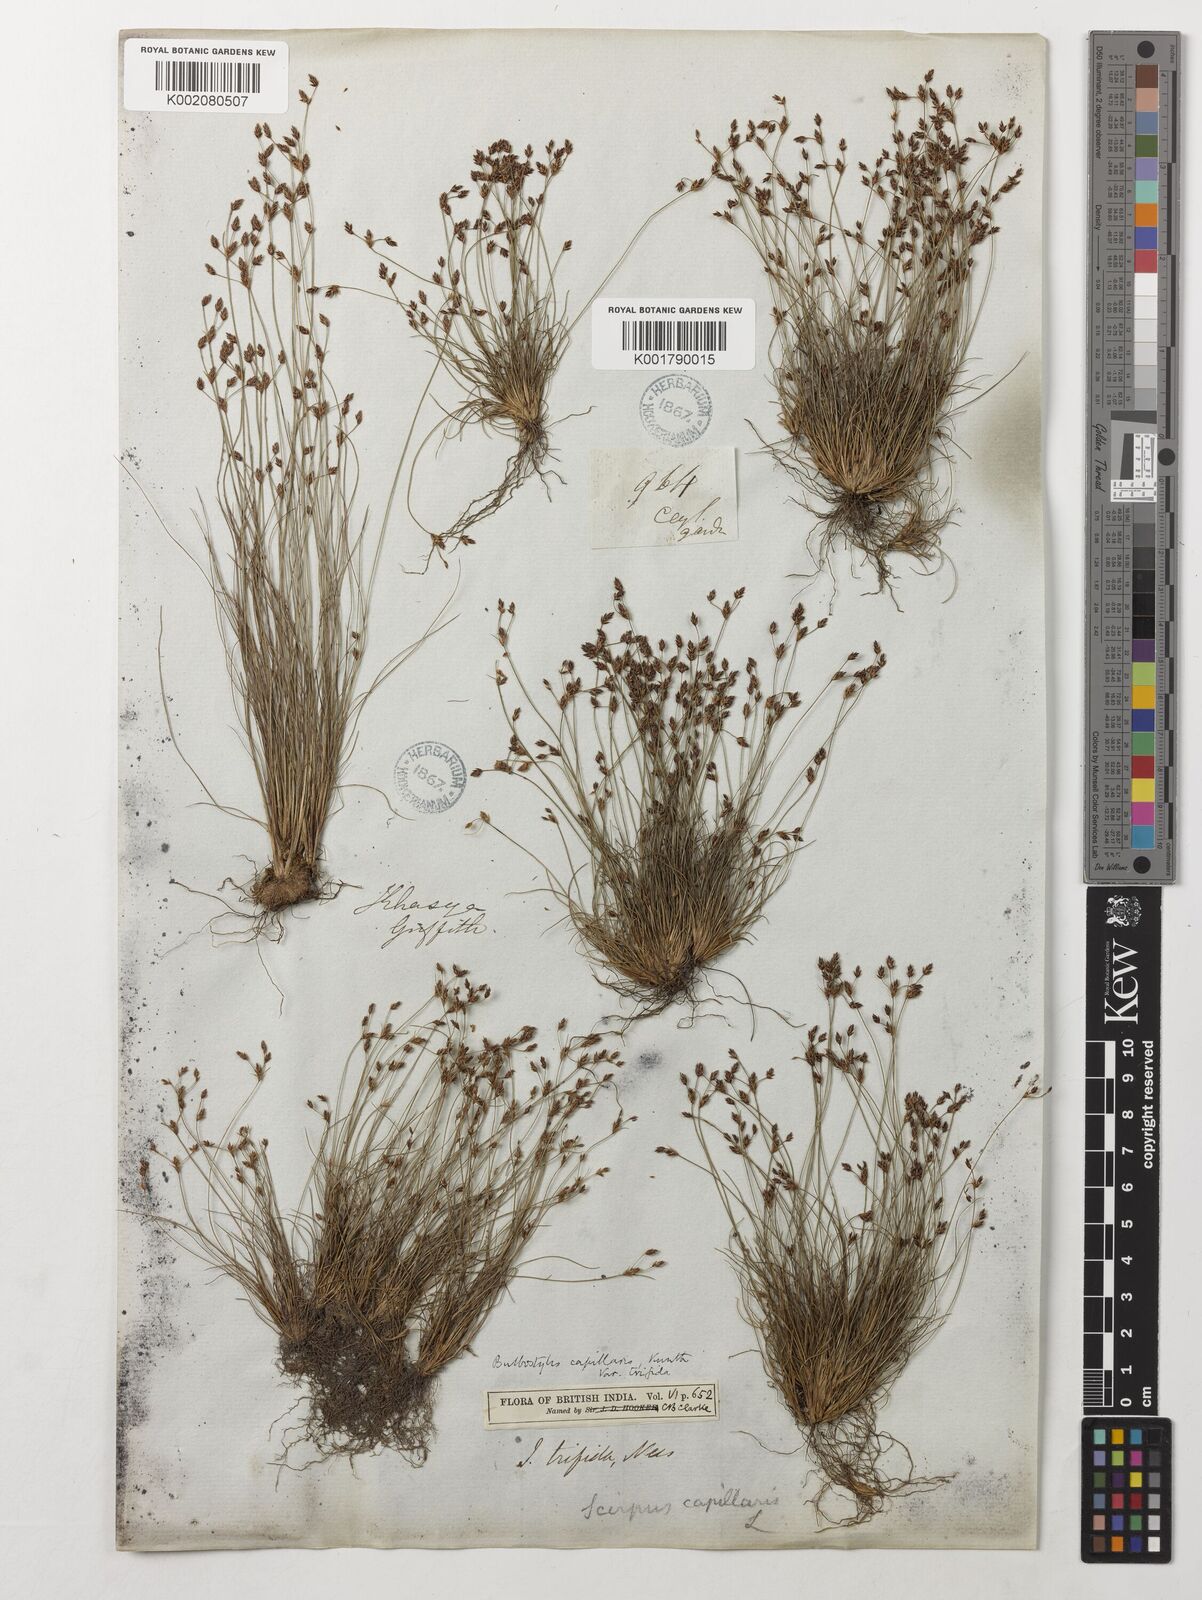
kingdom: Plantae
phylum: Tracheophyta
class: Liliopsida
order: Poales
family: Cyperaceae
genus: Bulbostylis
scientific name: Bulbostylis densa
